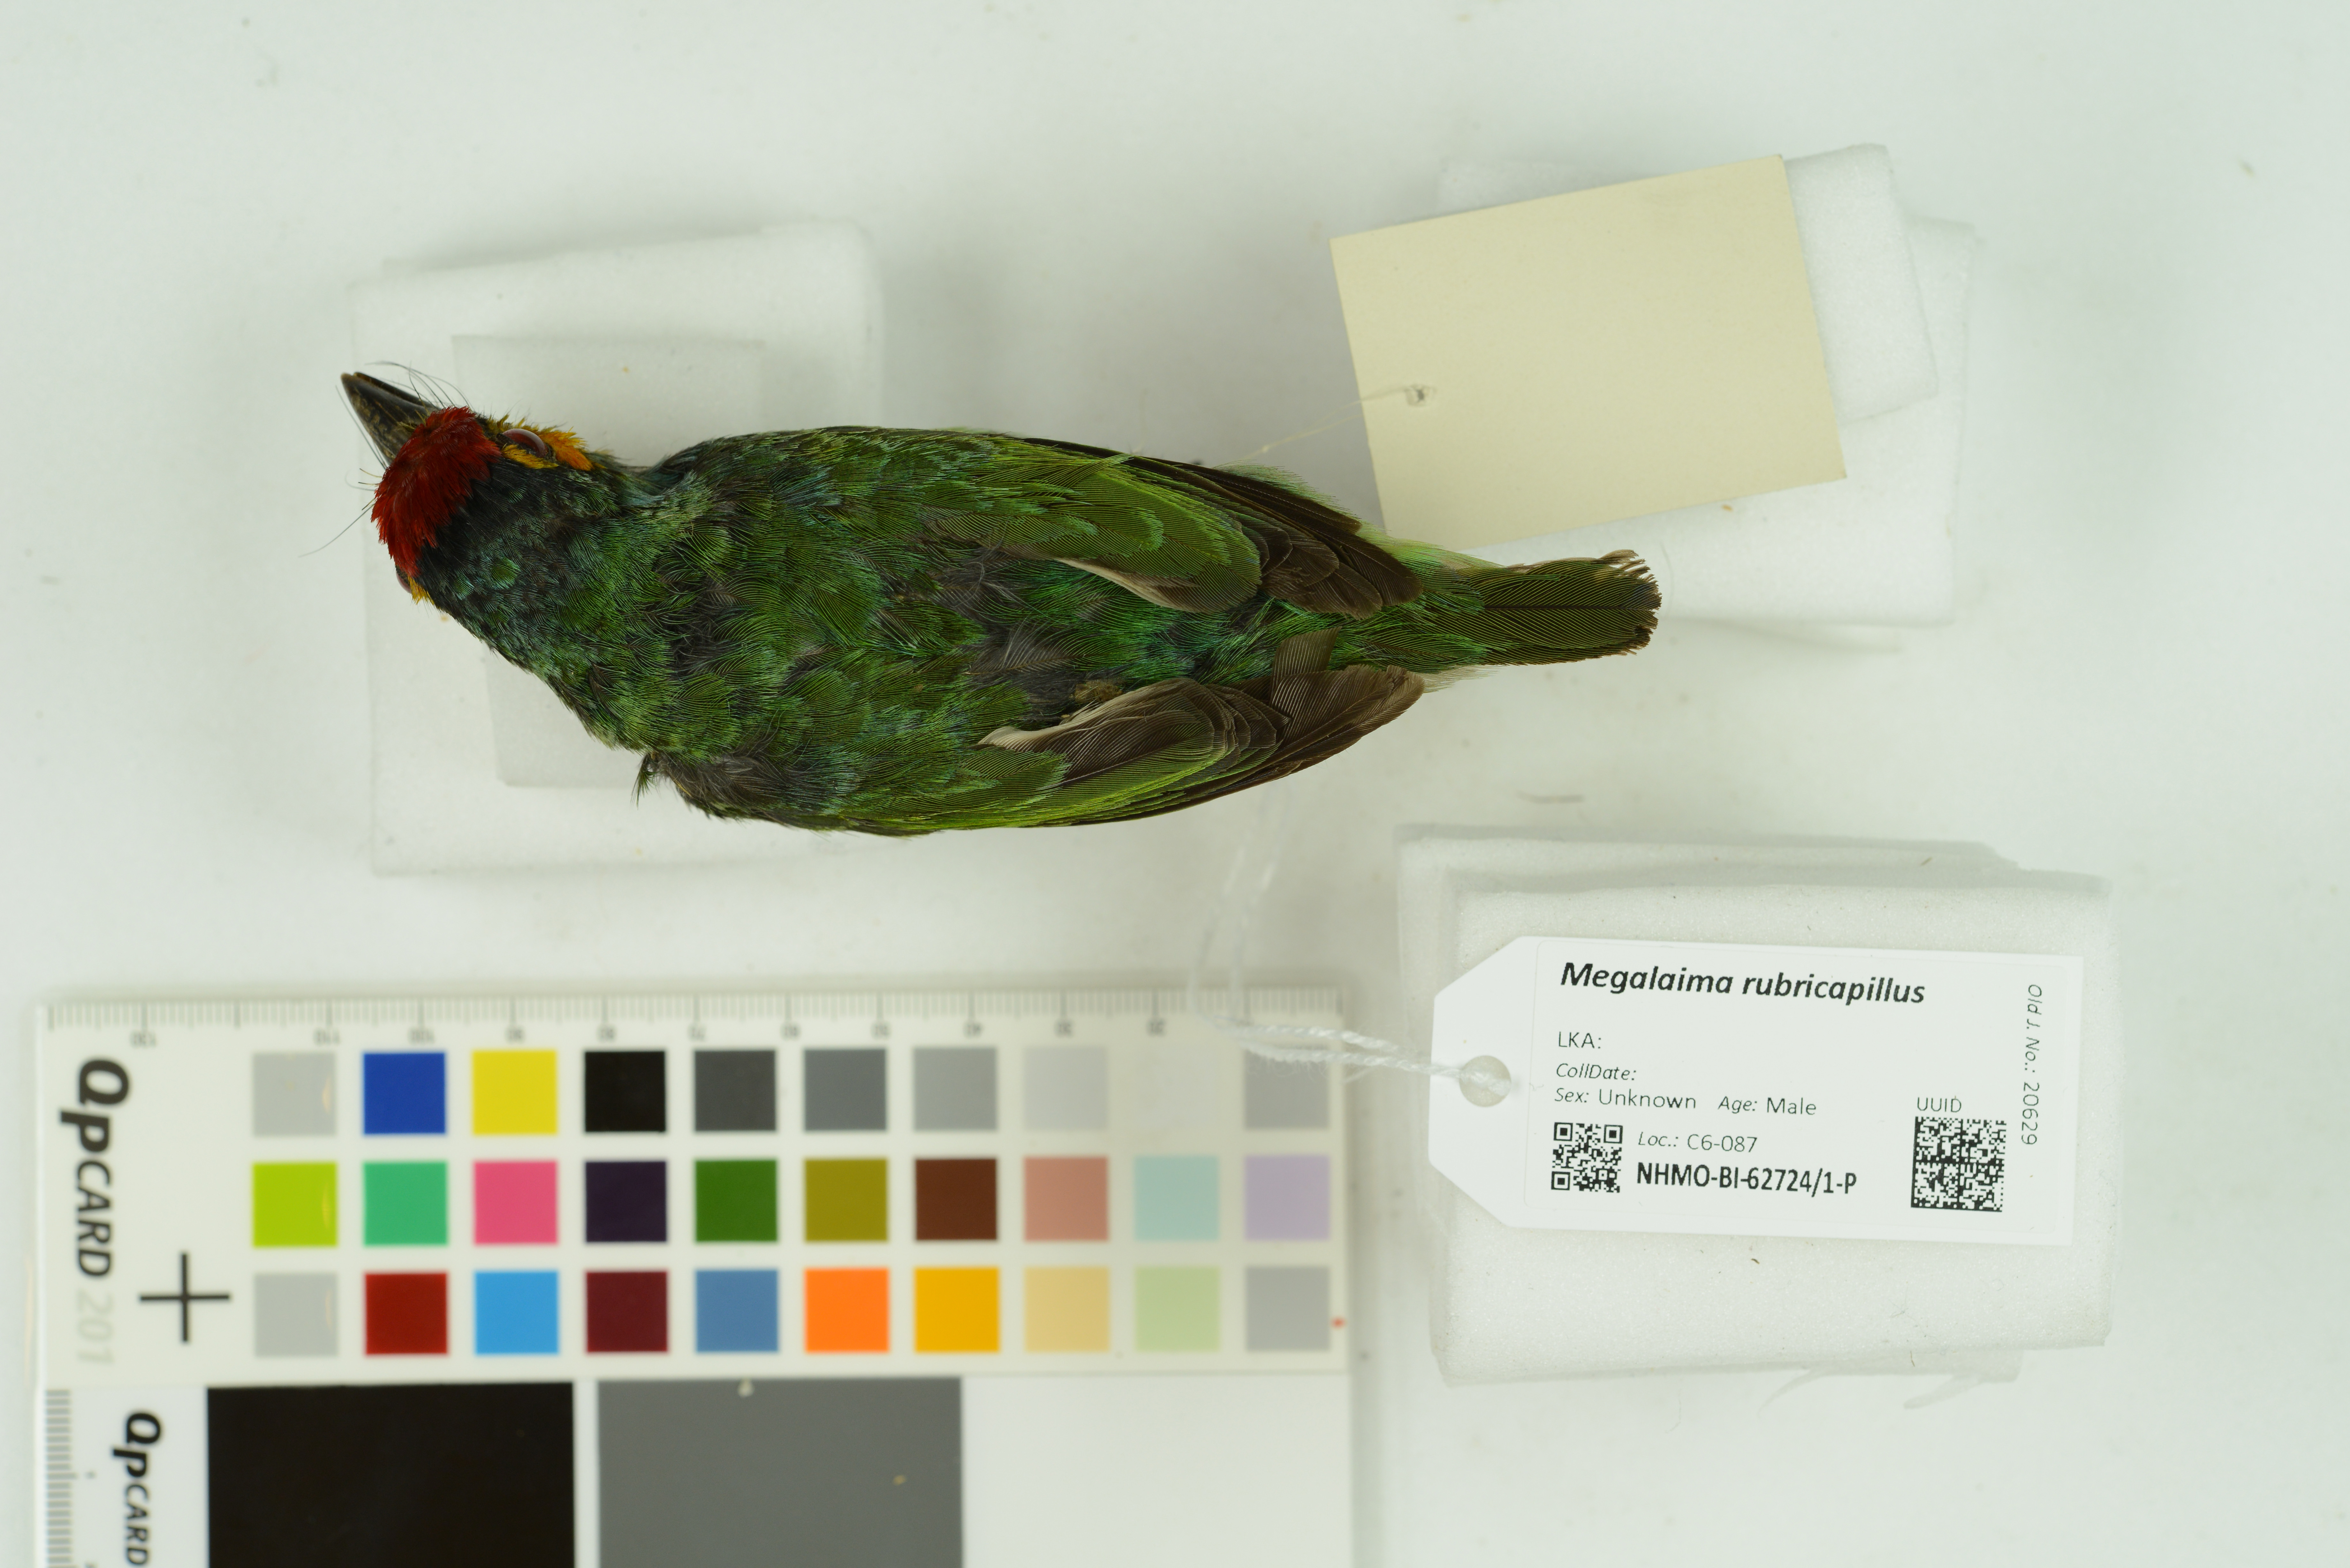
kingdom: Animalia
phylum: Chordata
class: Aves
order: Piciformes
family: Megalaimidae
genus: Psilopogon
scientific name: Psilopogon rubricapillus
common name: Crimson-fronted barbet
